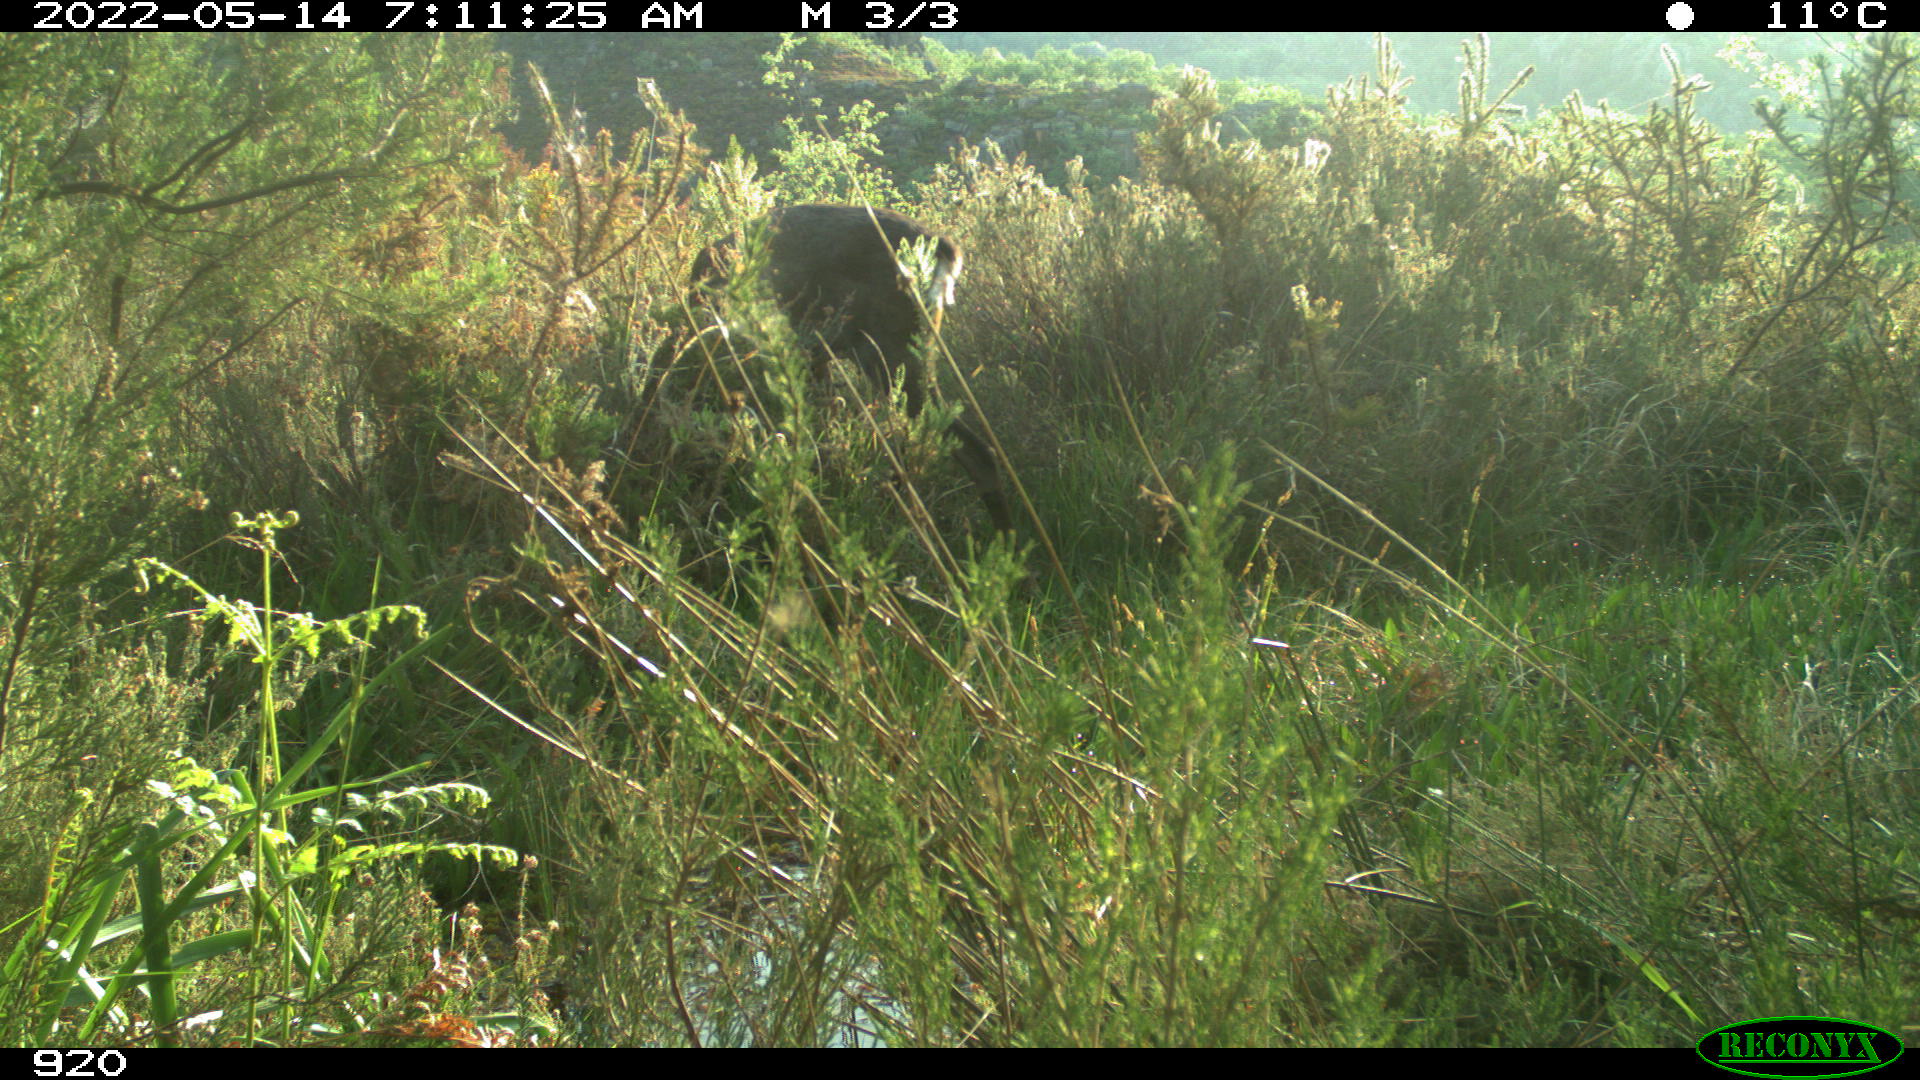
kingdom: Animalia
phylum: Chordata
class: Mammalia
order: Artiodactyla
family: Cervidae
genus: Capreolus
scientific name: Capreolus capreolus
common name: Western roe deer
